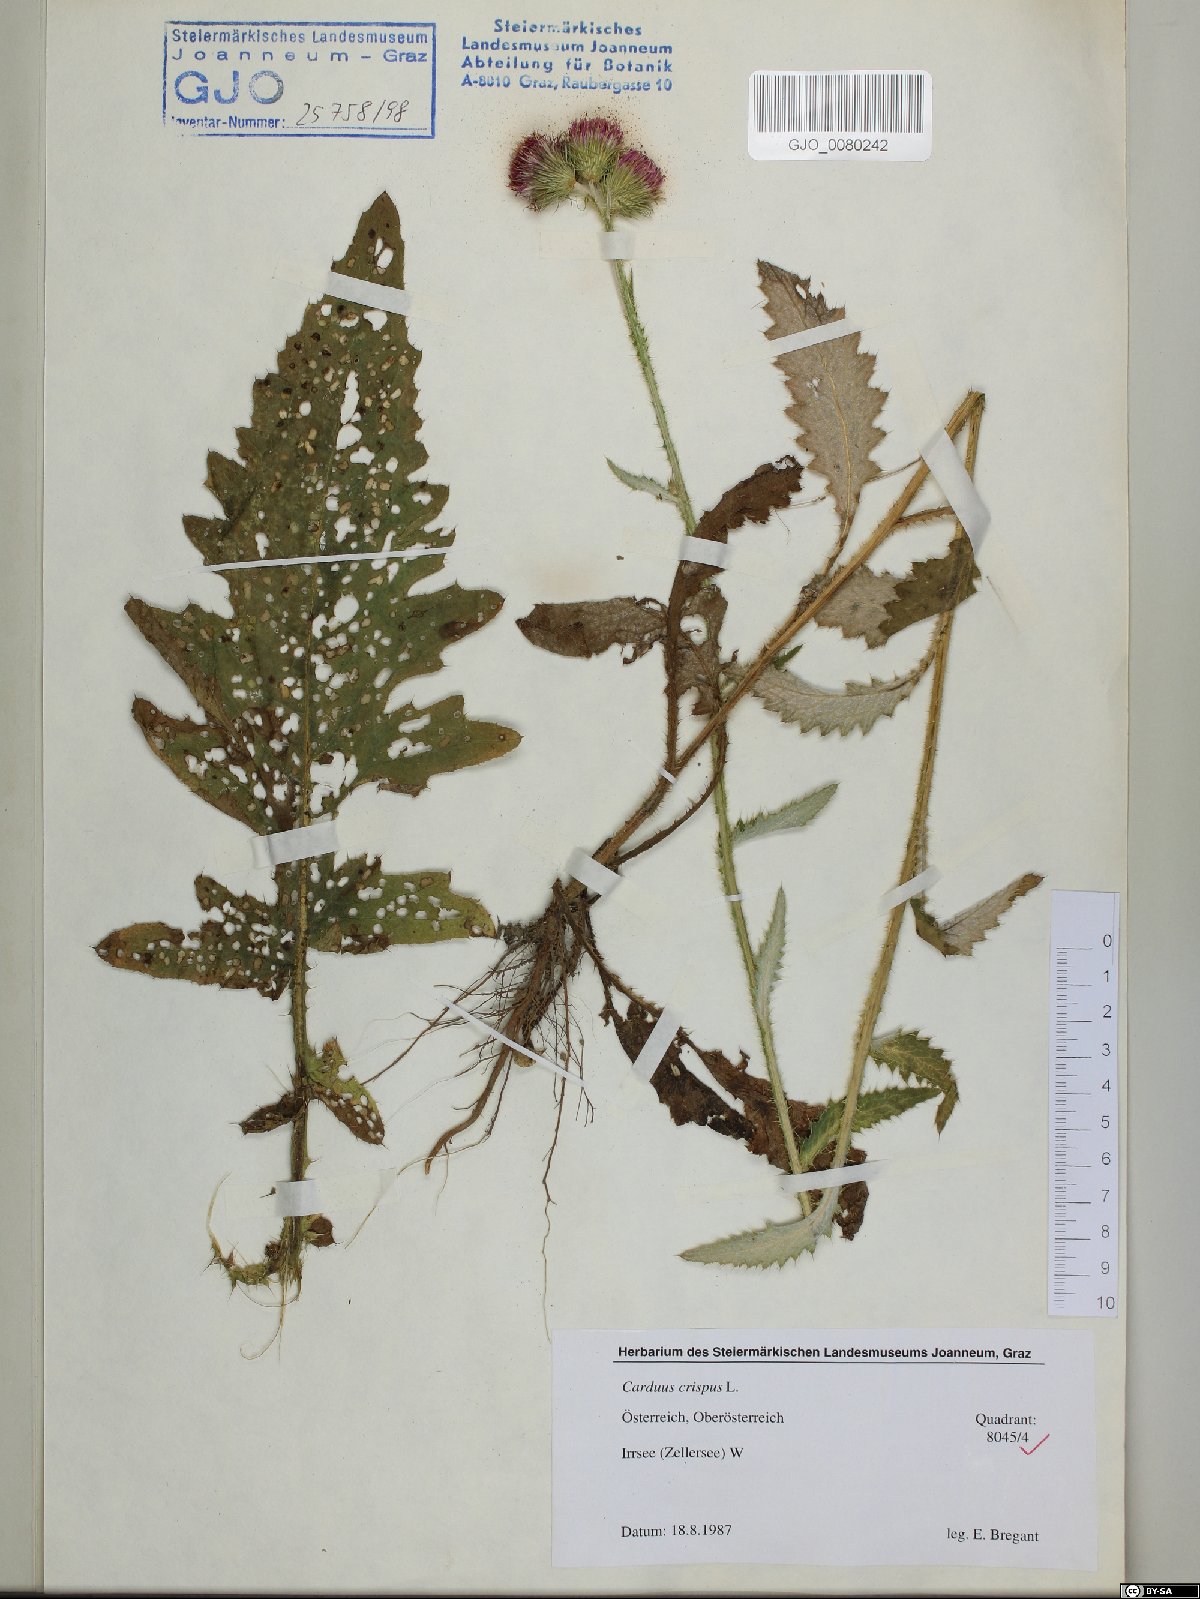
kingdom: Plantae
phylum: Tracheophyta
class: Magnoliopsida
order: Asterales
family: Asteraceae
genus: Carduus
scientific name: Carduus crispus
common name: Welted thistle
